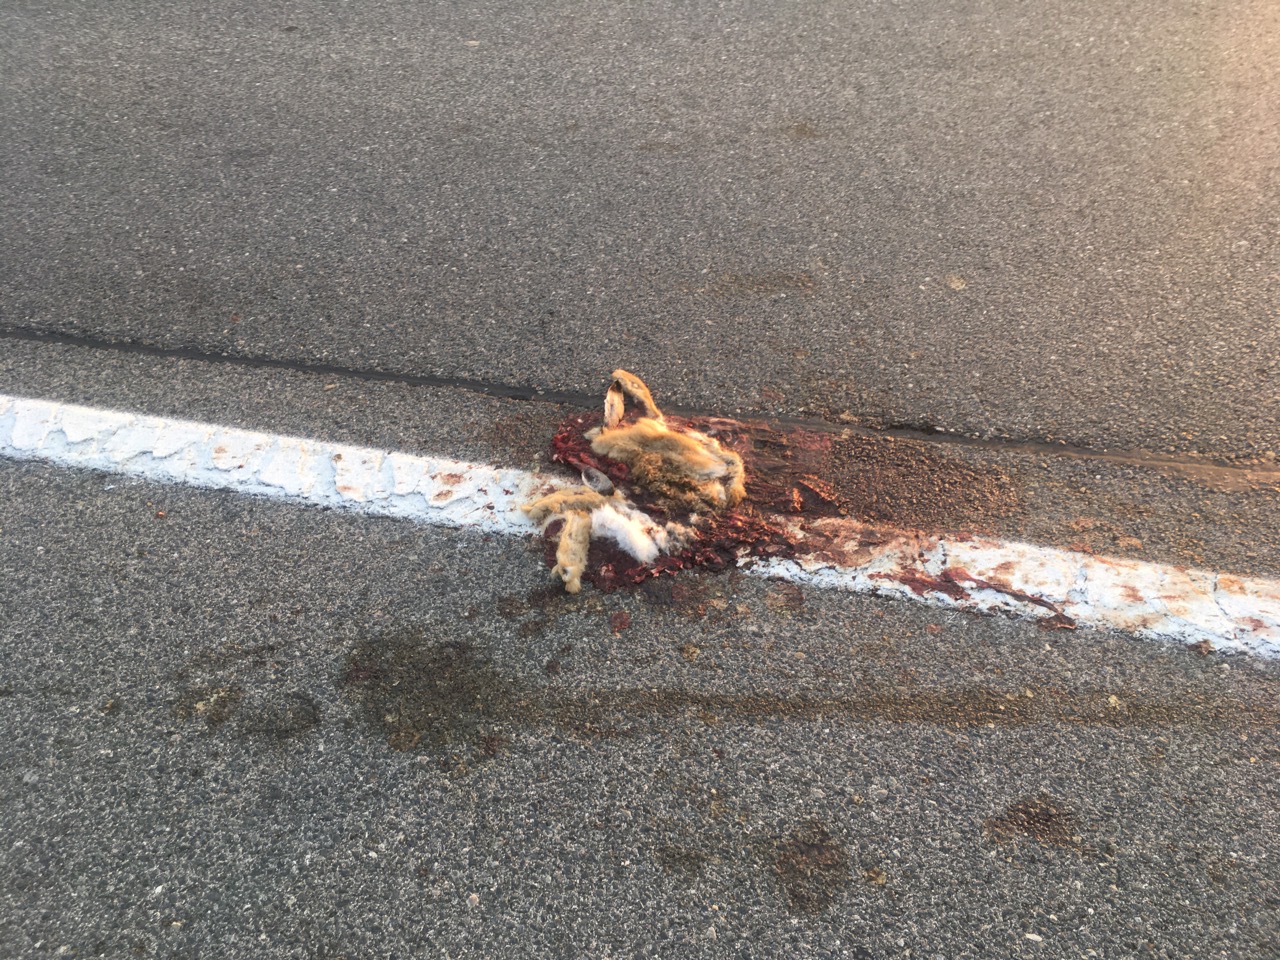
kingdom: Animalia
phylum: Chordata
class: Mammalia
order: Lagomorpha
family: Leporidae
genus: Lepus
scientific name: Lepus europaeus
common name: European hare
